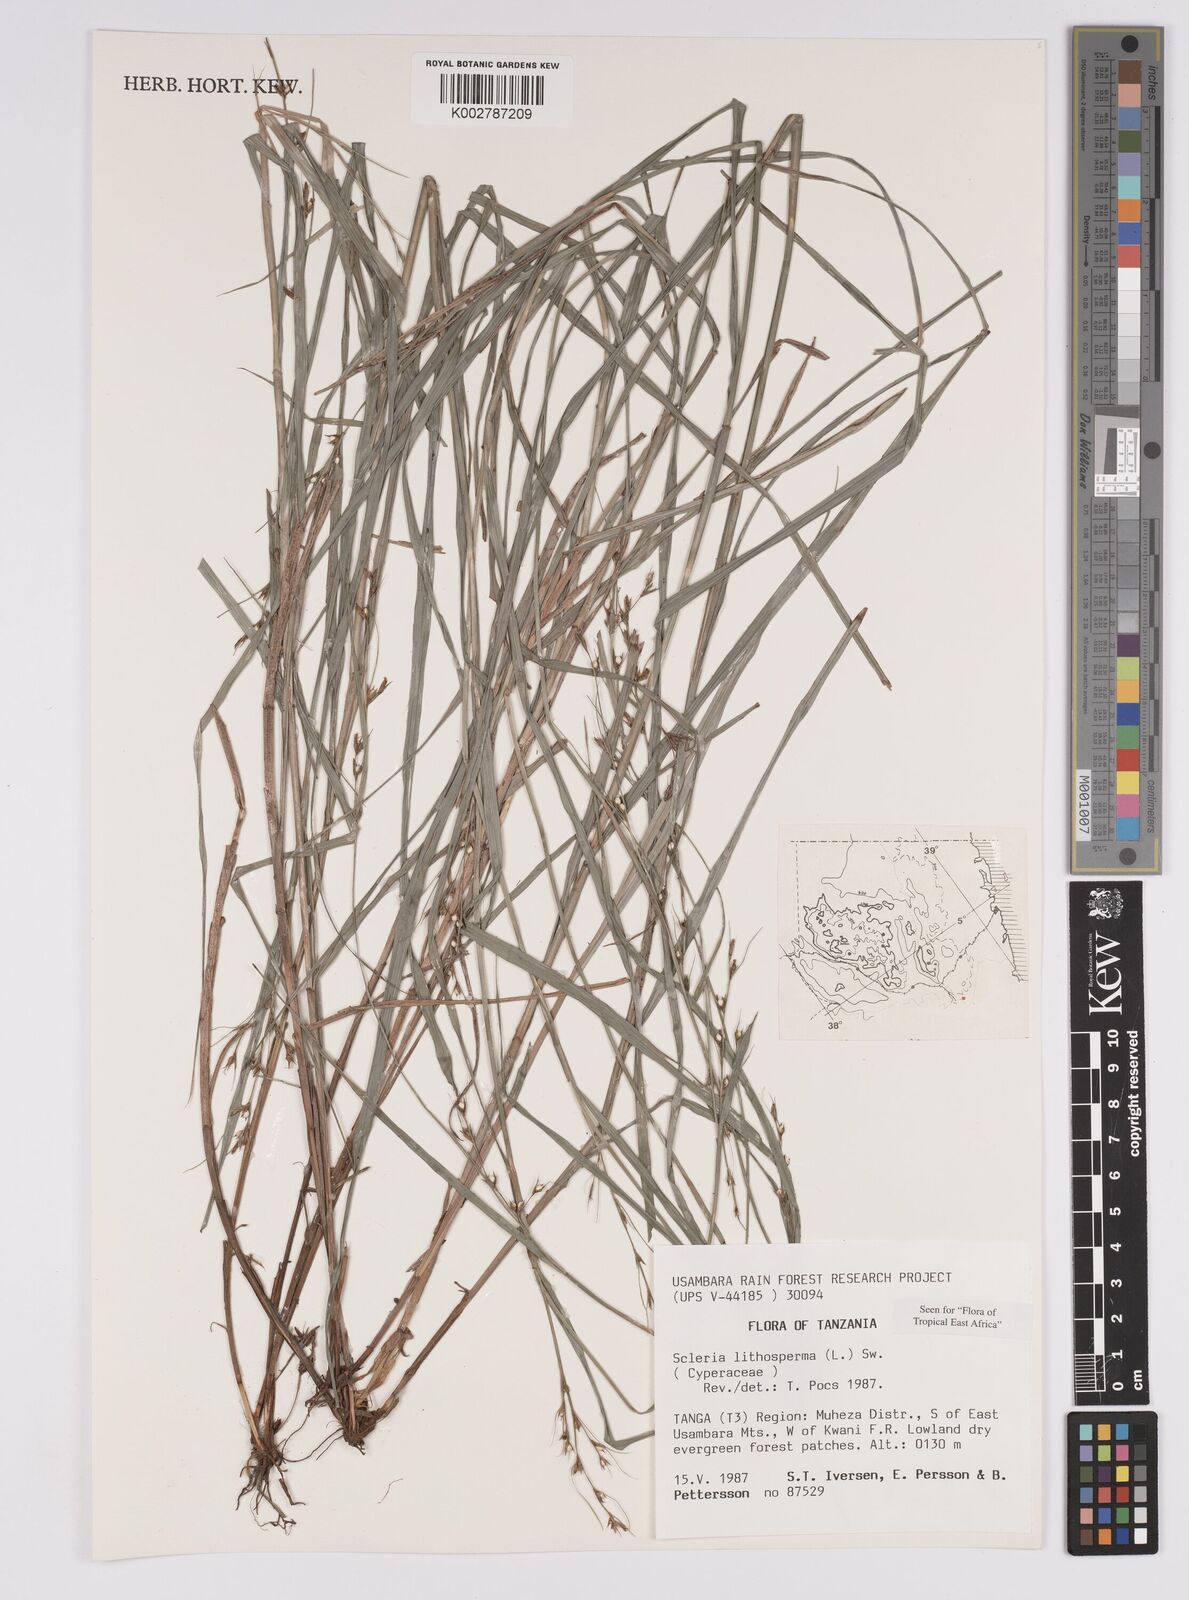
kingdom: Plantae
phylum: Tracheophyta
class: Liliopsida
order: Poales
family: Cyperaceae
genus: Scleria
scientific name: Scleria lithosperma
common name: Florida keys nut-rush
